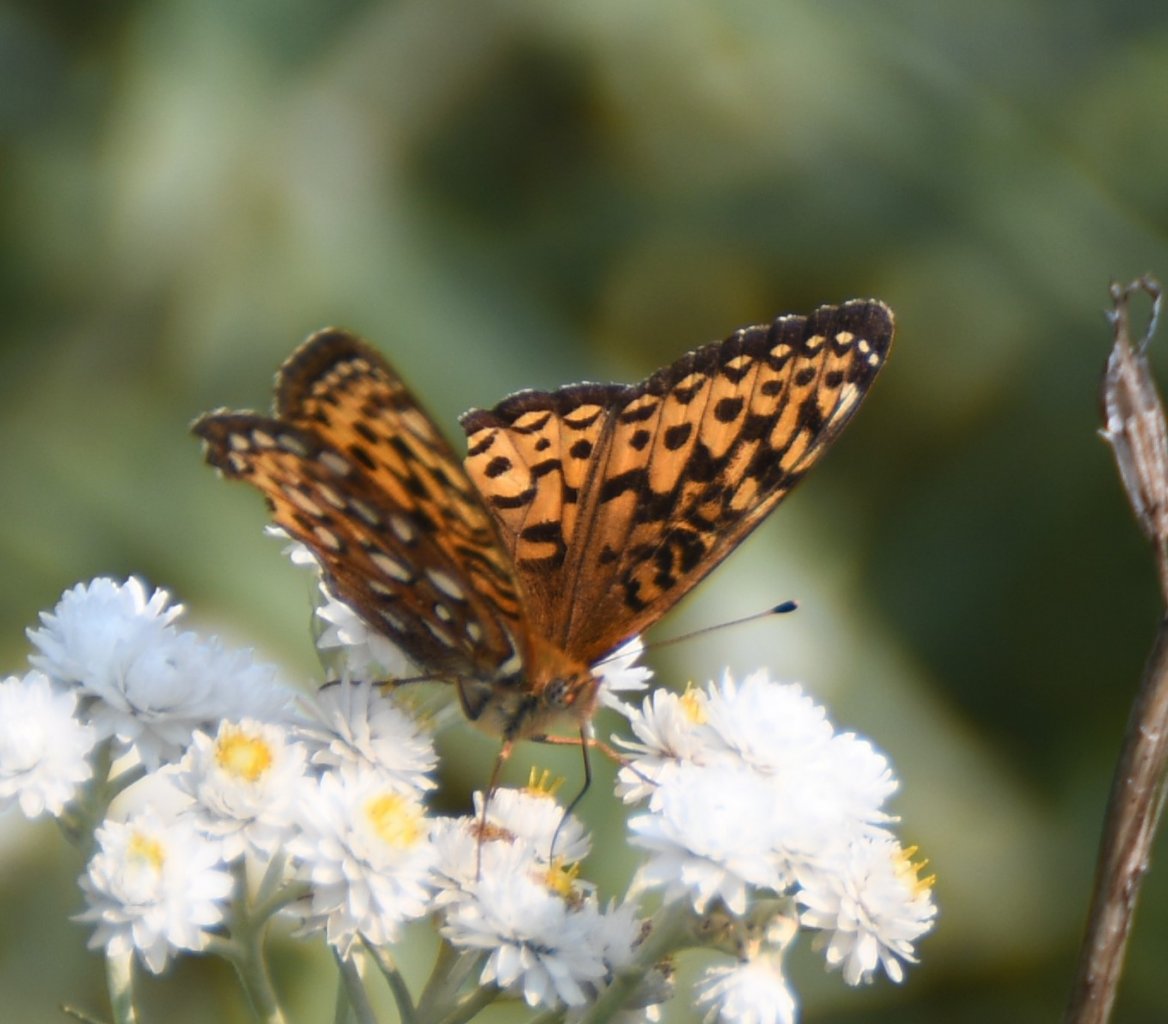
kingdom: Animalia
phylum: Arthropoda
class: Insecta
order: Lepidoptera
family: Nymphalidae
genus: Speyeria
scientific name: Speyeria atlantis
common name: Atlantis Fritillary
